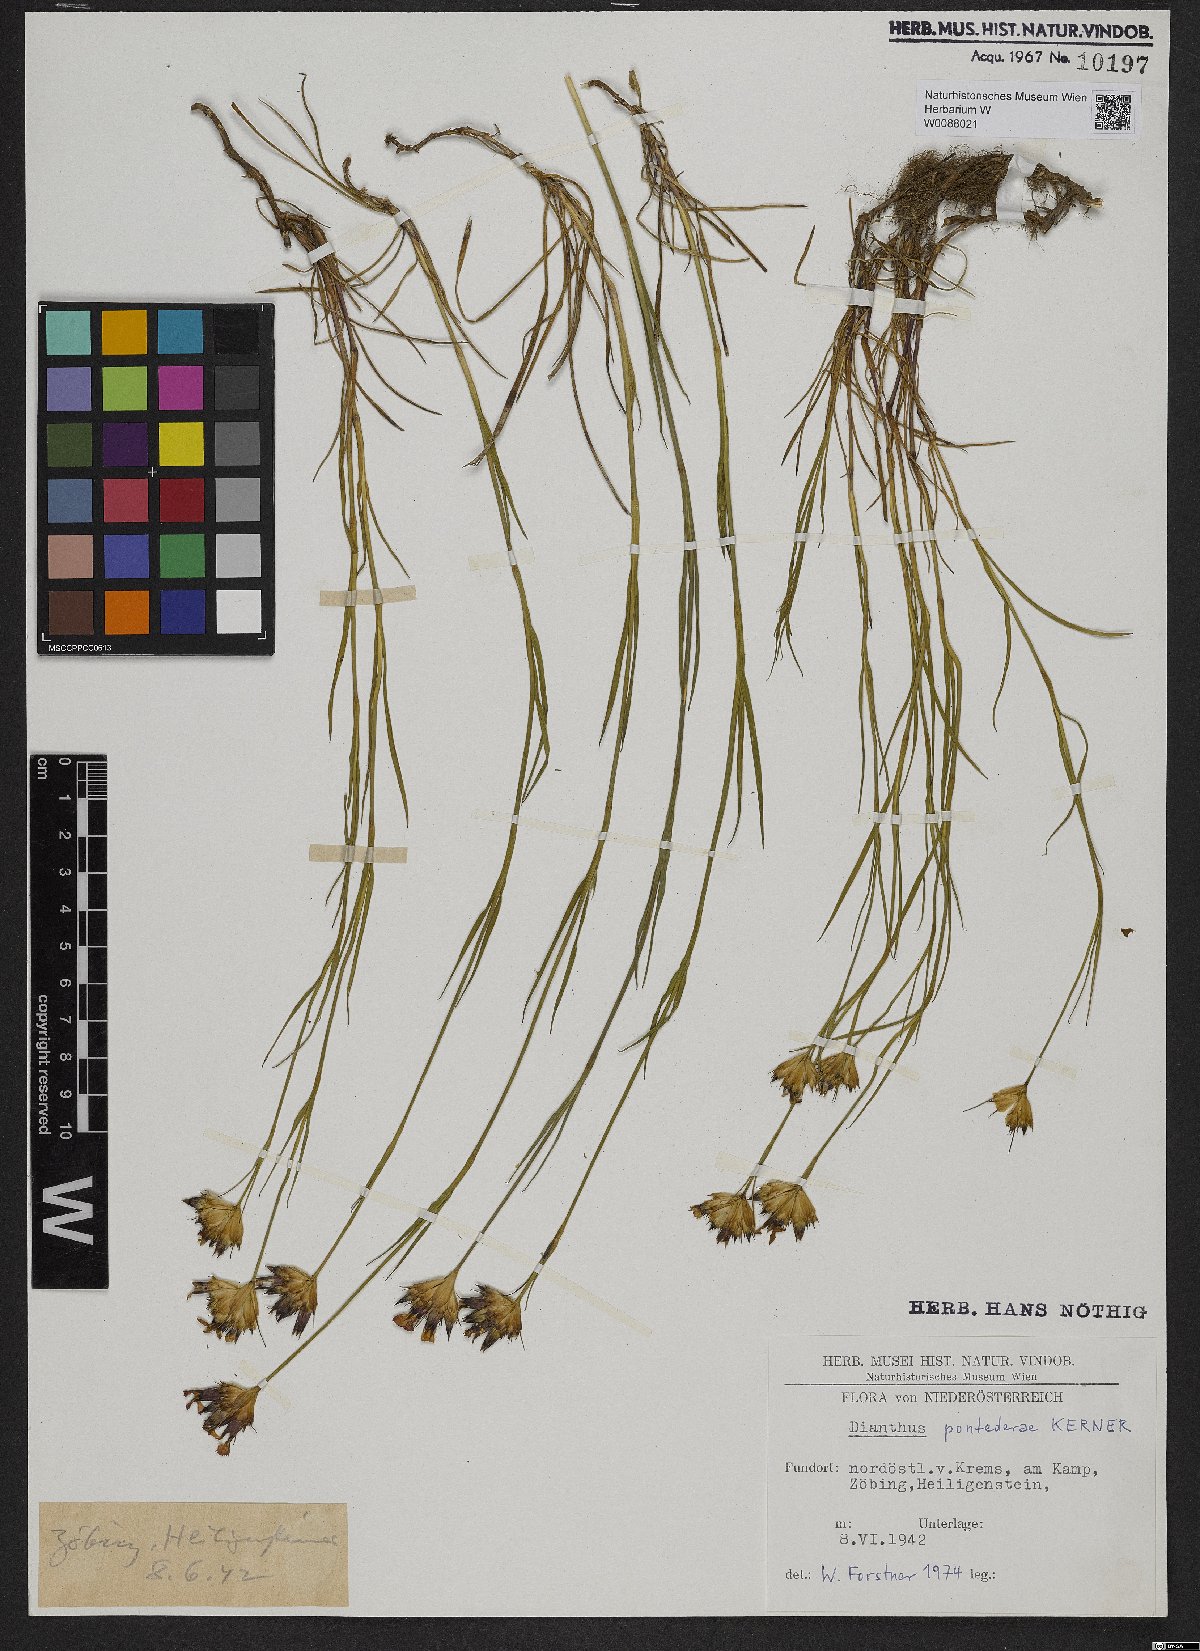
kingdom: Plantae
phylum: Tracheophyta
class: Magnoliopsida
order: Caryophyllales
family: Caryophyllaceae
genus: Dianthus
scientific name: Dianthus pontederae
